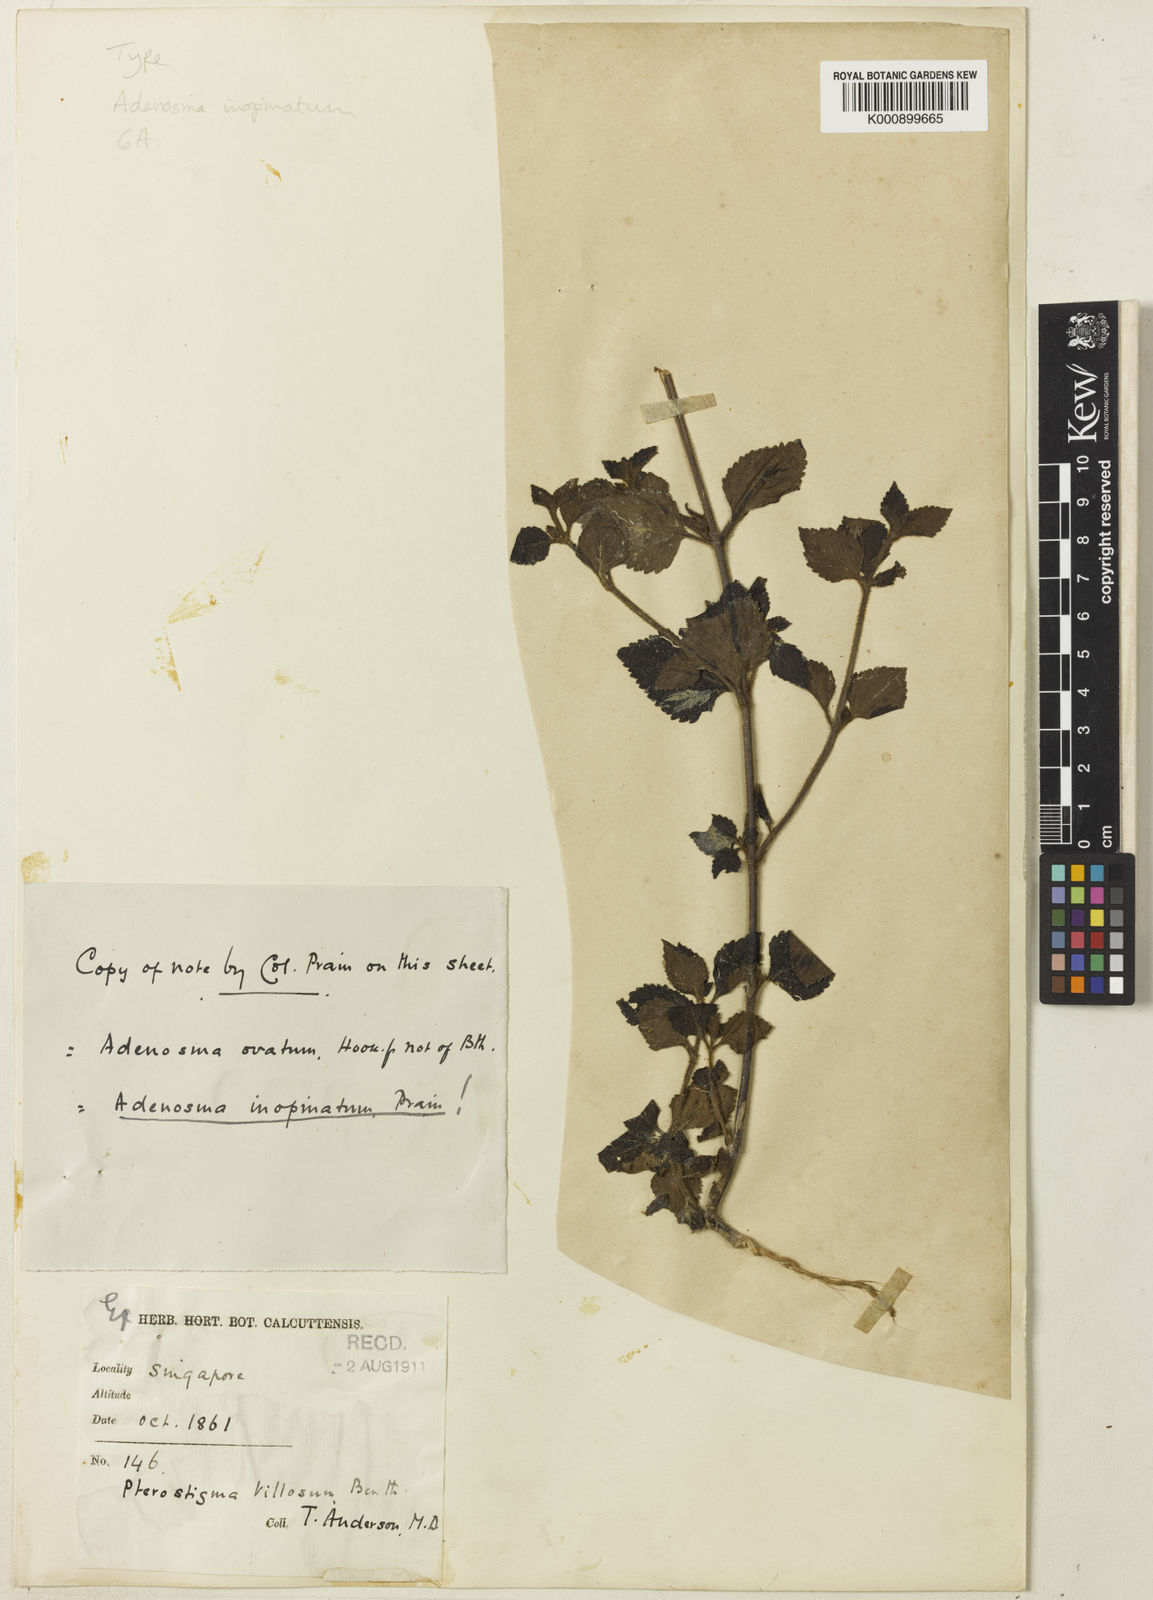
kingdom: Plantae
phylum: Tracheophyta
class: Magnoliopsida
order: Lamiales
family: Plantaginaceae
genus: Adenosma
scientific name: Adenosma inopinata
